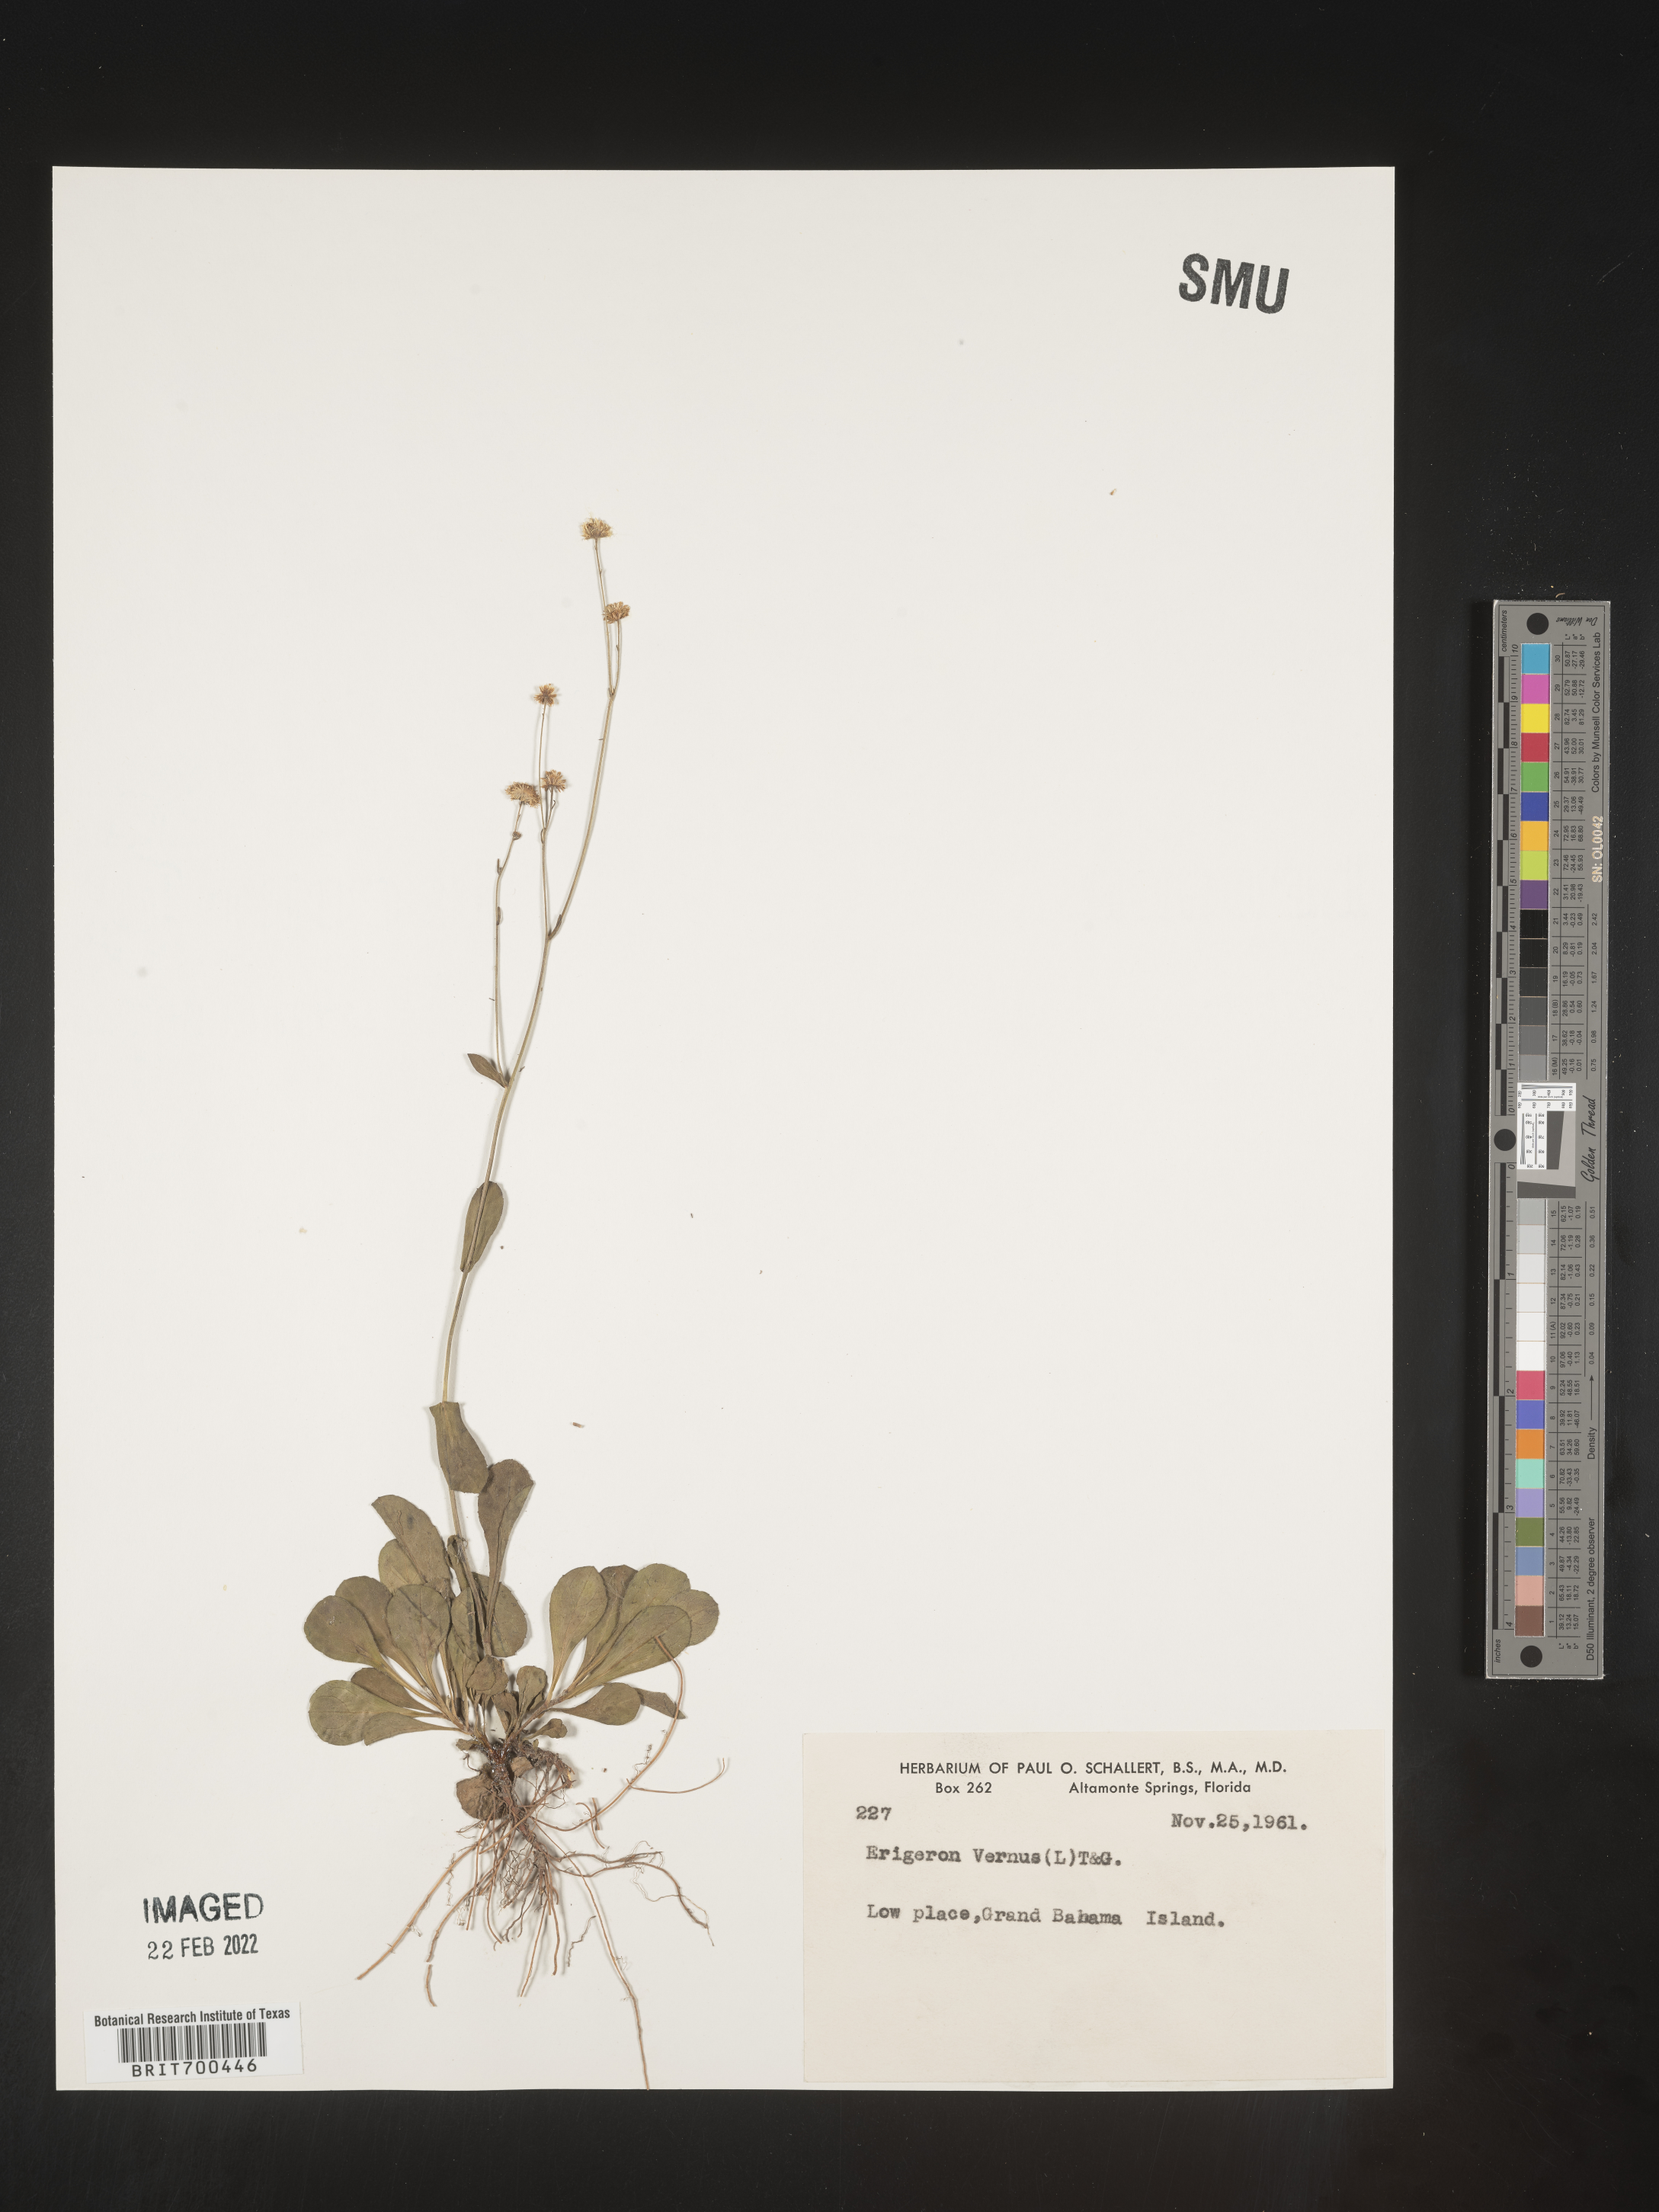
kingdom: Plantae
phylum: Tracheophyta
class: Magnoliopsida
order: Asterales
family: Asteraceae
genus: Erigeron
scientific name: Erigeron
